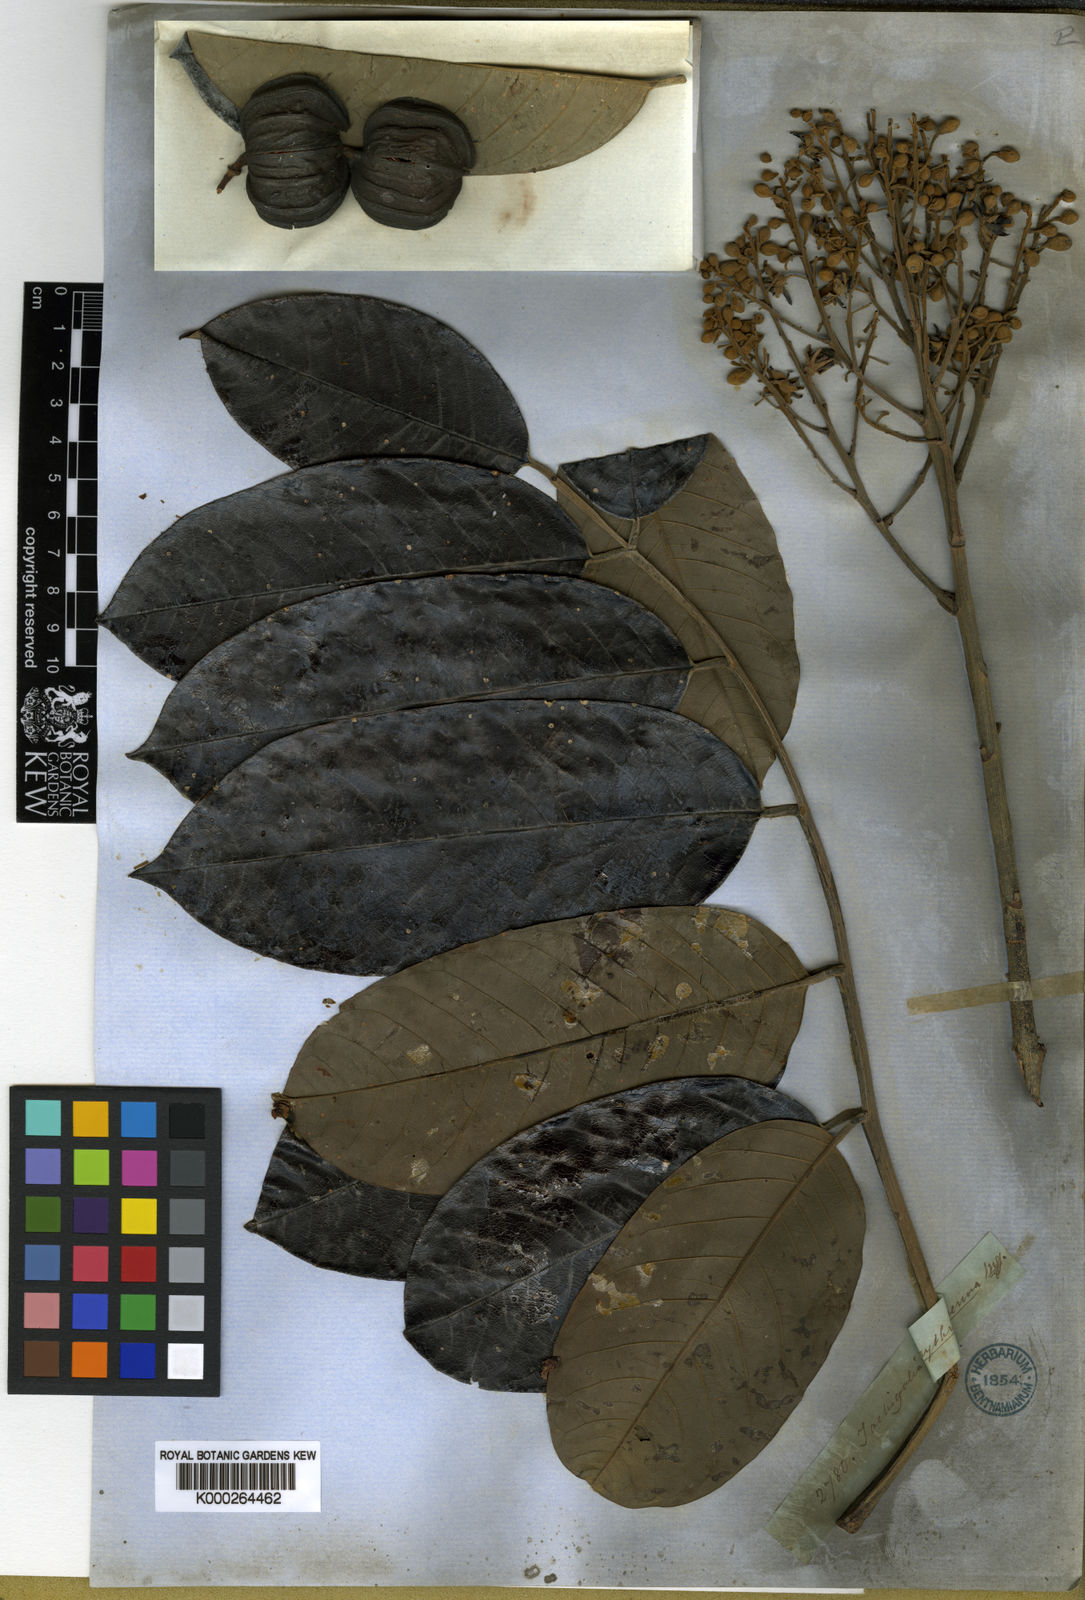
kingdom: Plantae
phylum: Tracheophyta
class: Magnoliopsida
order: Fabales
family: Fabaceae
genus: Batesia
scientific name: Batesia floribunda
